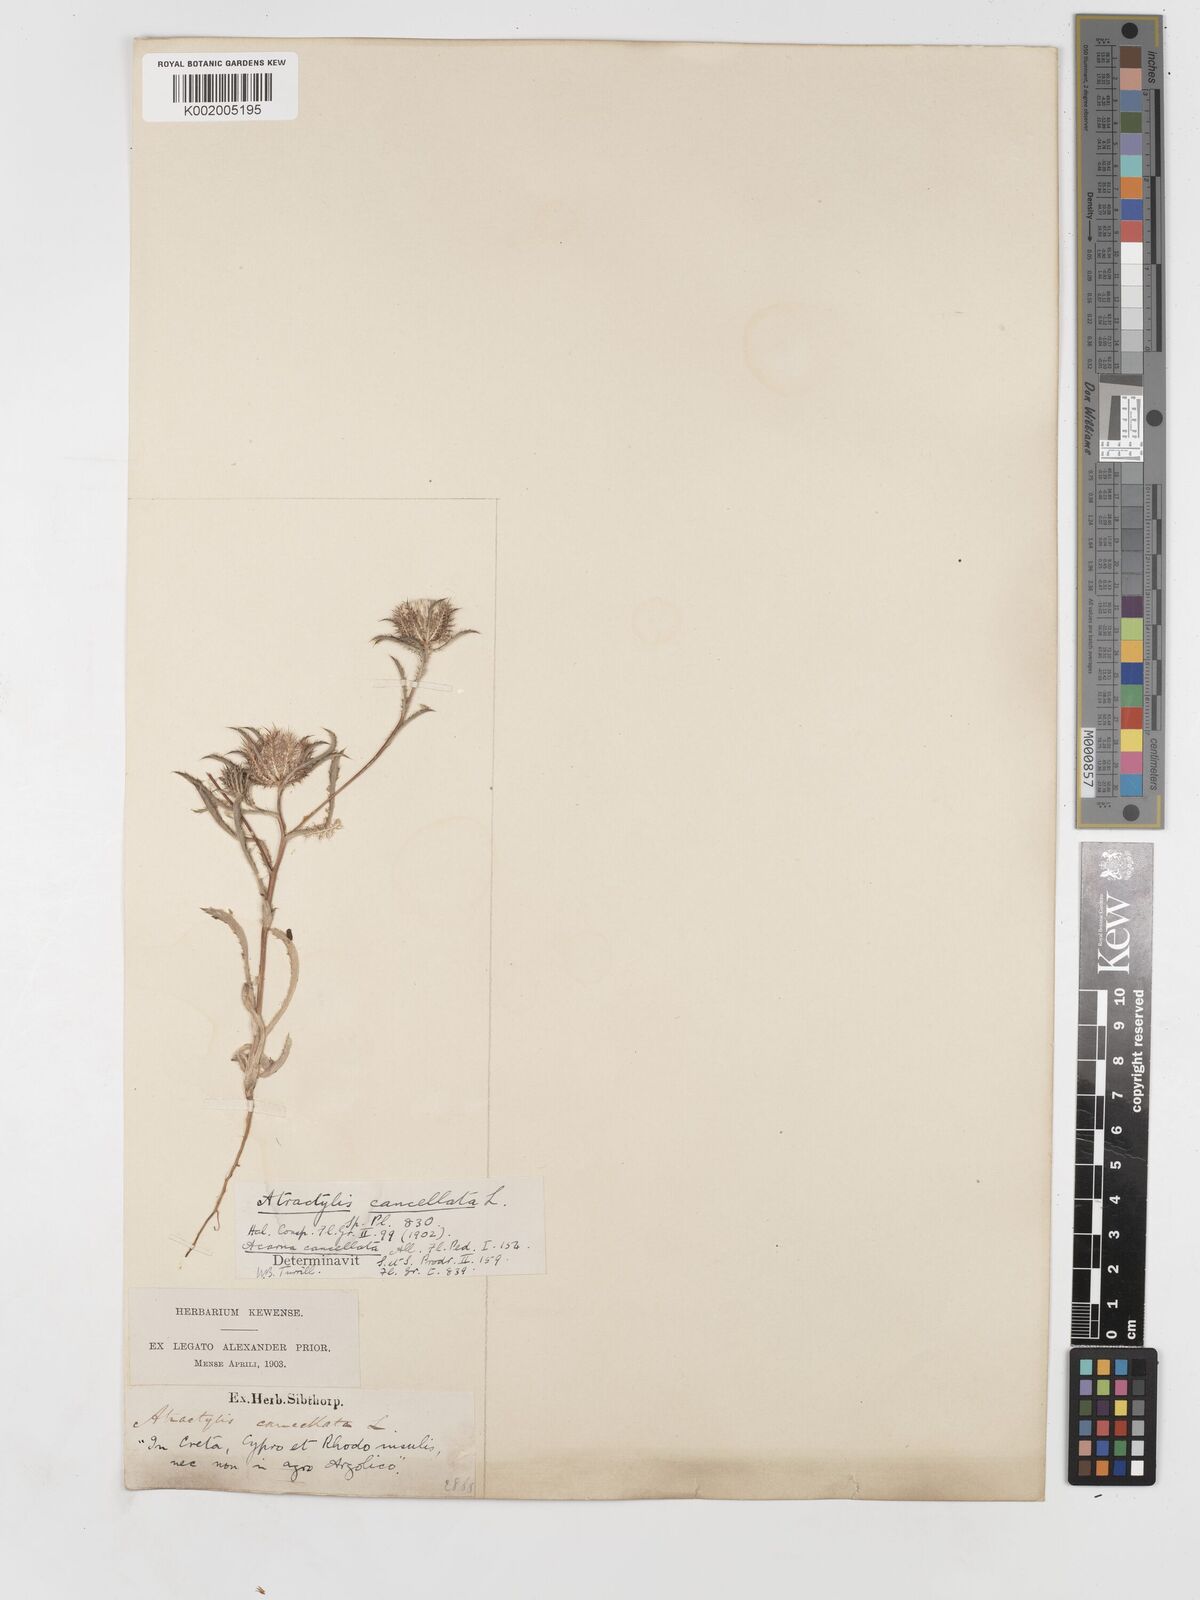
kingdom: Plantae
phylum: Tracheophyta
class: Magnoliopsida
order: Asterales
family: Asteraceae
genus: Atractylis
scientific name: Atractylis cancellata
